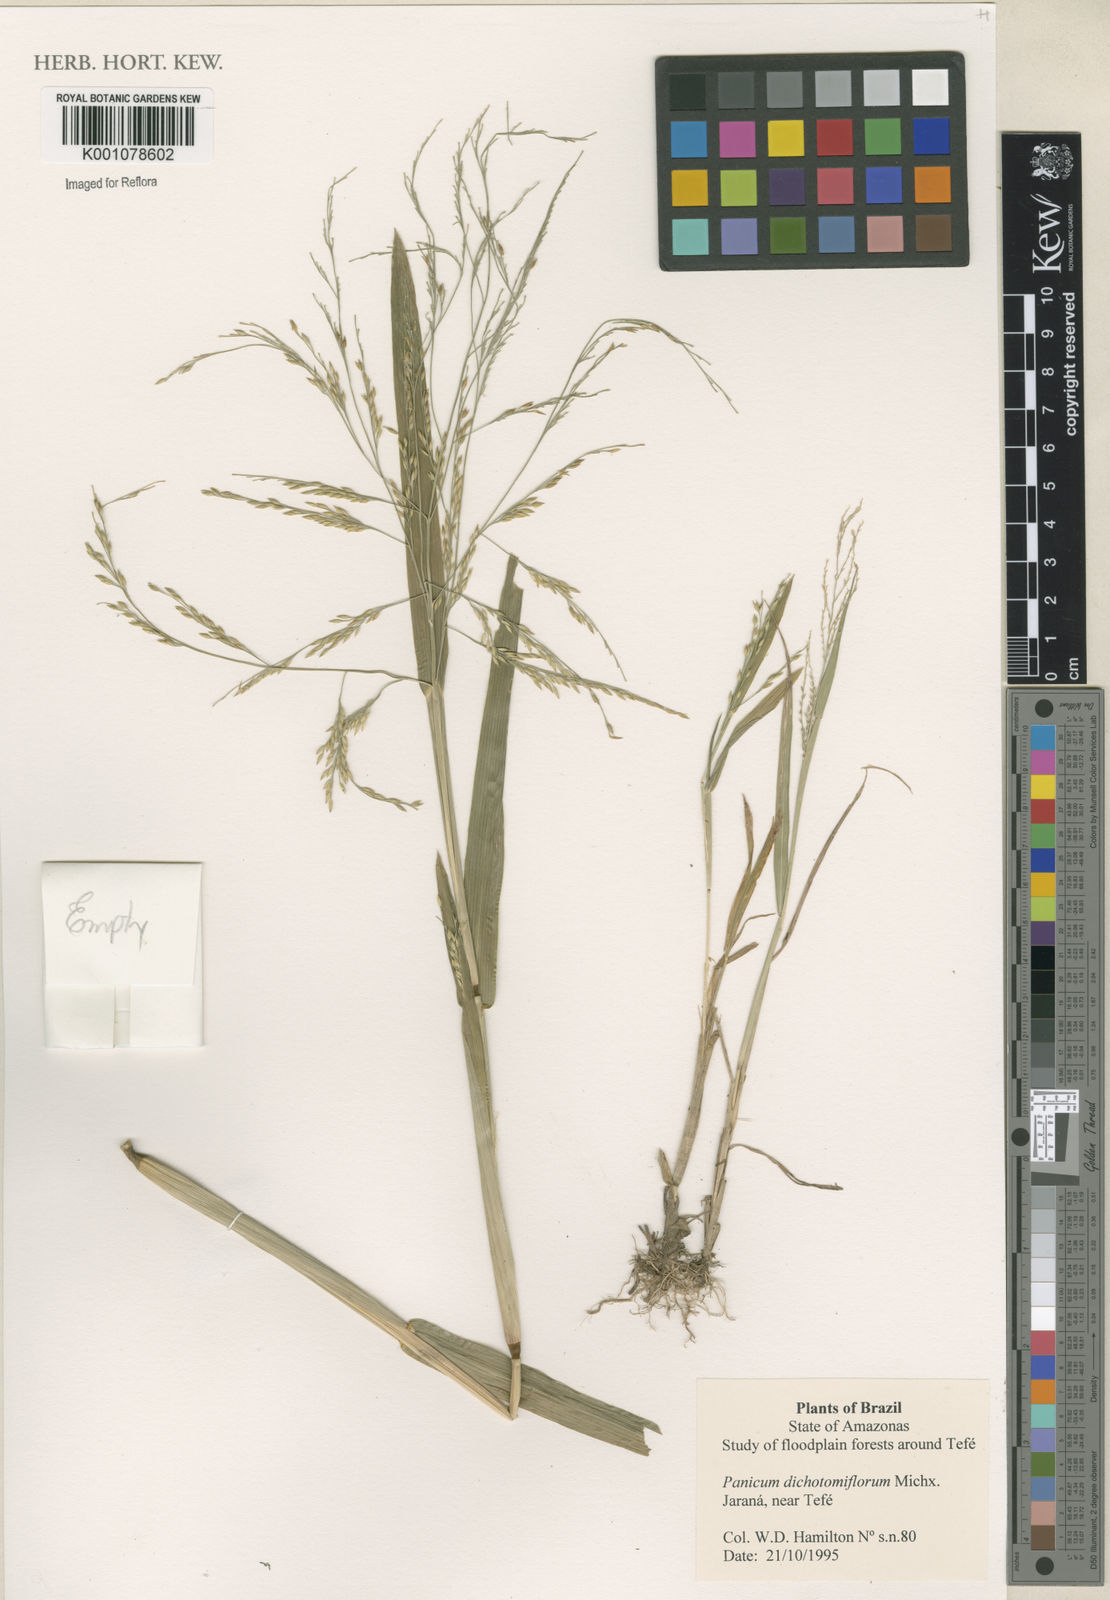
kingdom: Plantae
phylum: Tracheophyta
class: Liliopsida
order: Poales
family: Poaceae
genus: Panicum
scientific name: Panicum dichotomiflorum
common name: Autumn millet
